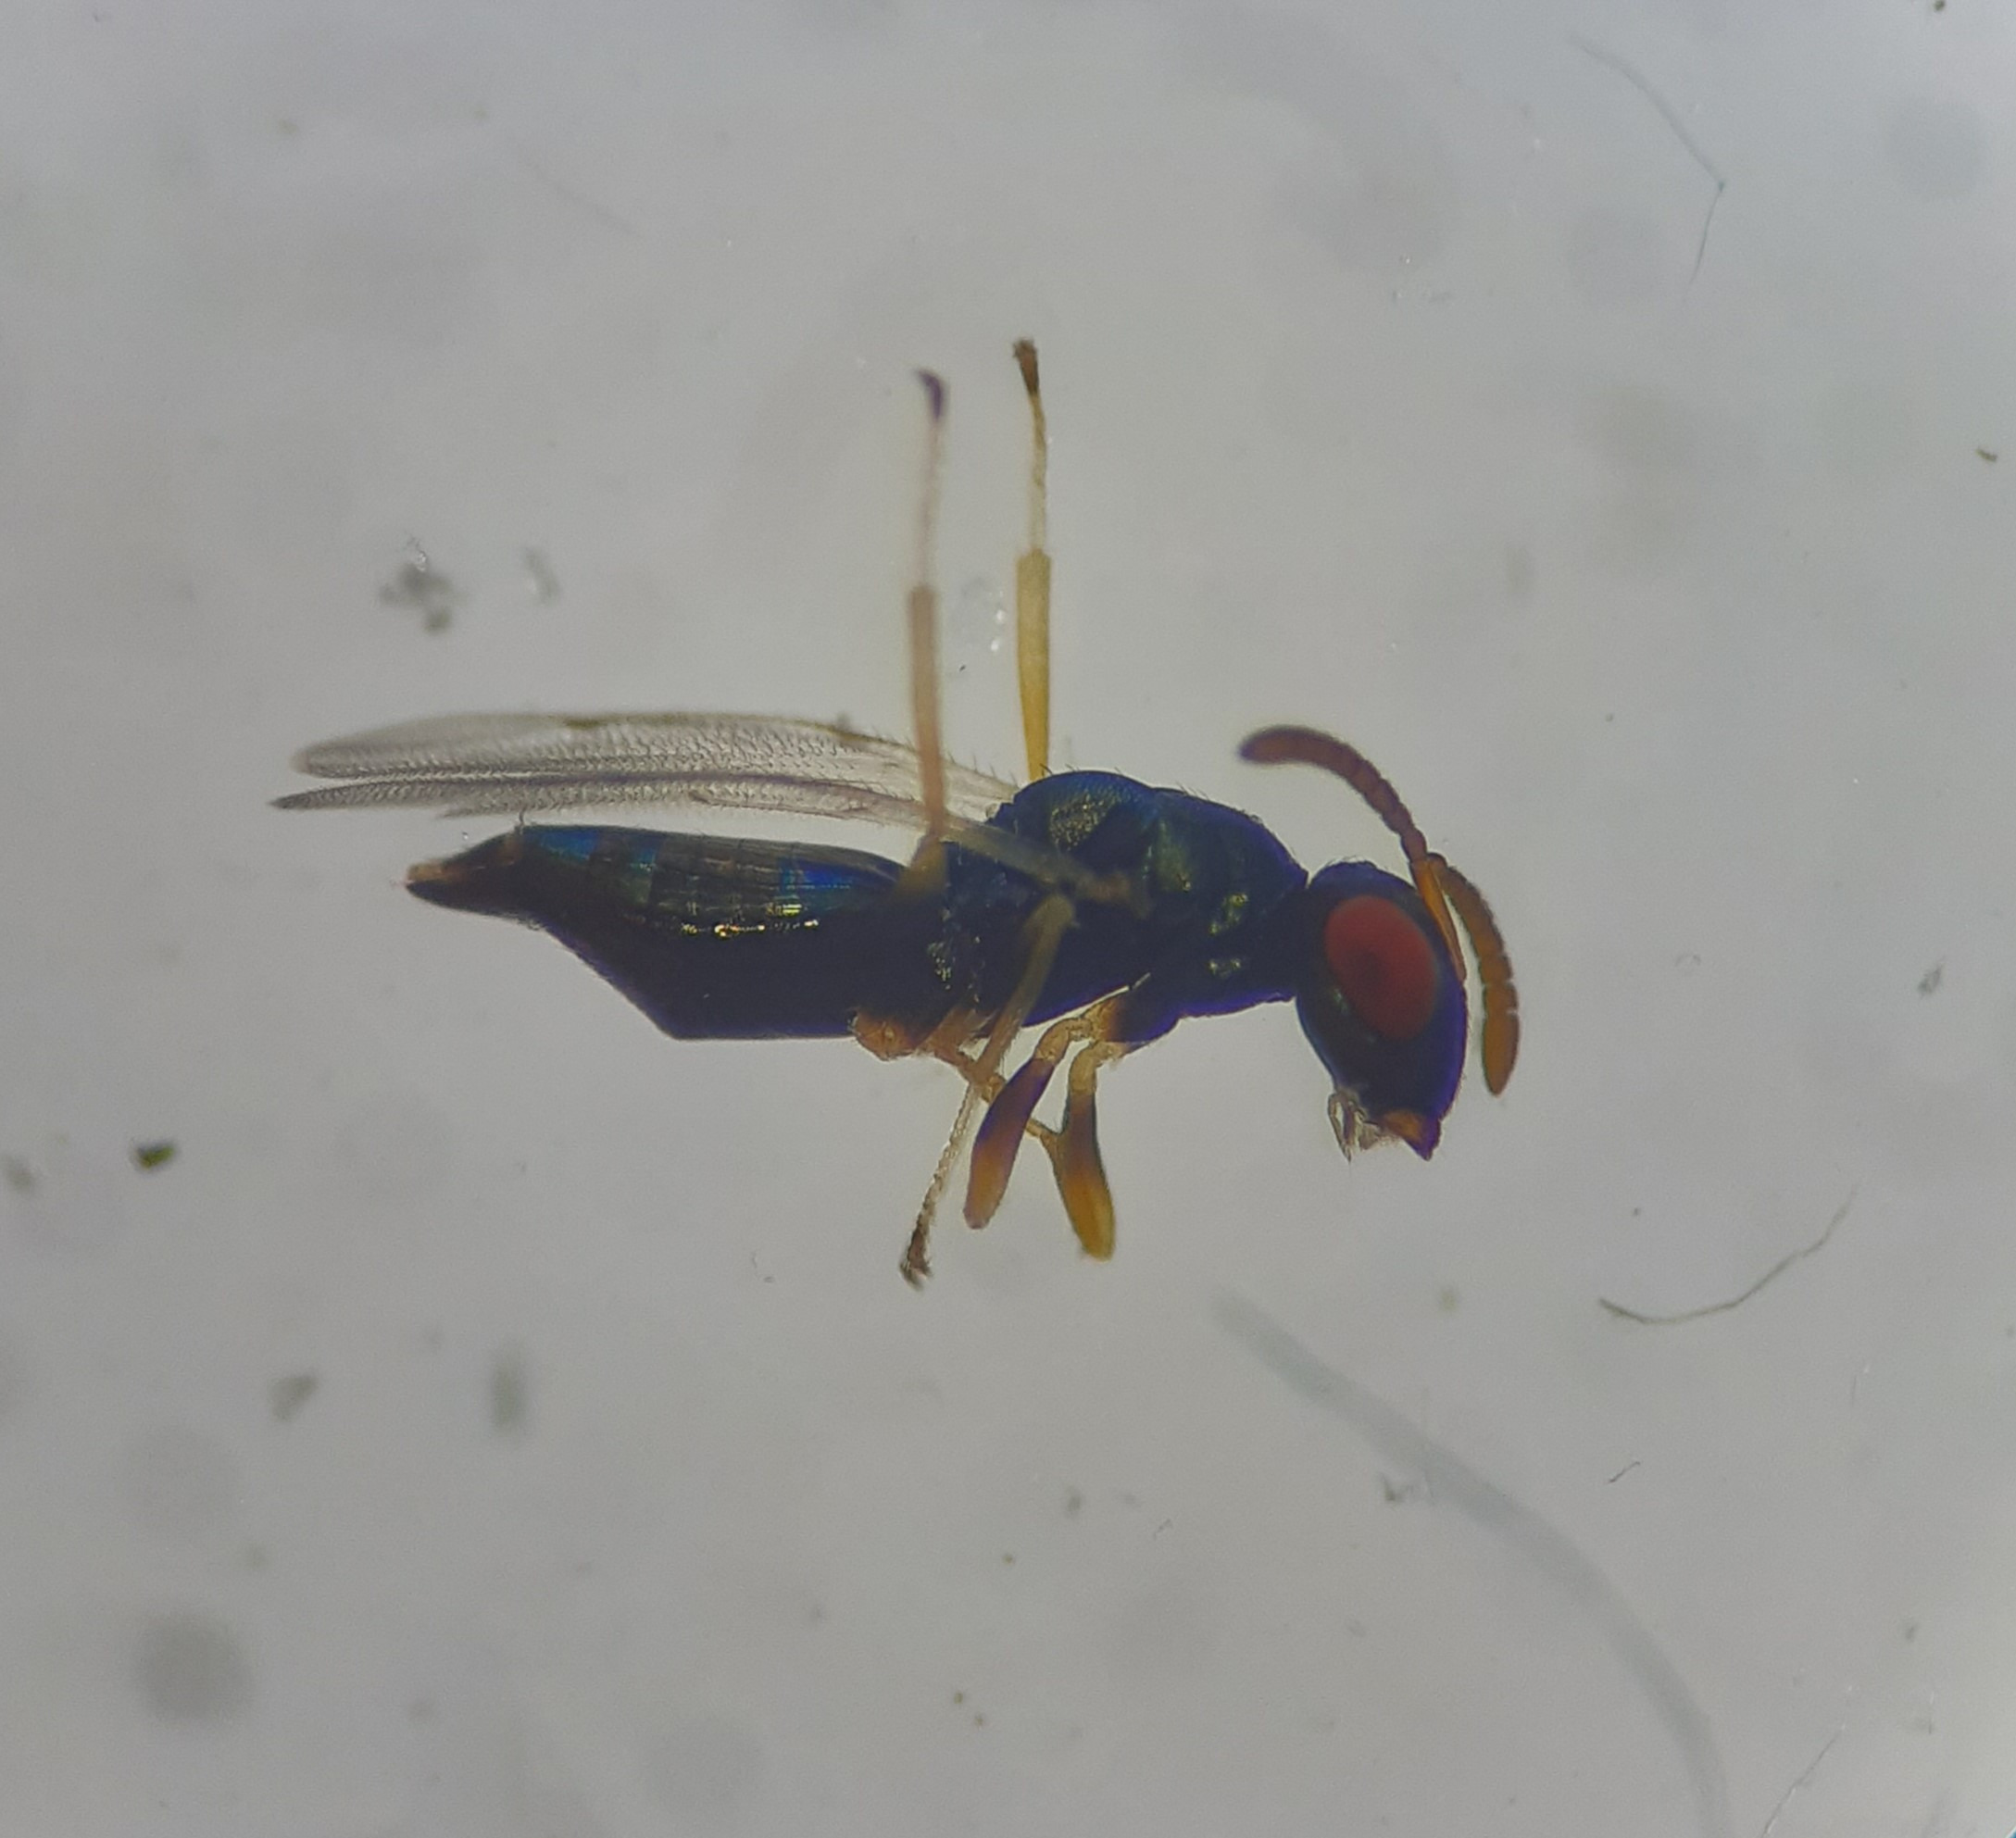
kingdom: Animalia
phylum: Arthropoda
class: Insecta
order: Hymenoptera
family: Pteromalidae
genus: Pteromalus
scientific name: Pteromalus hieracii
